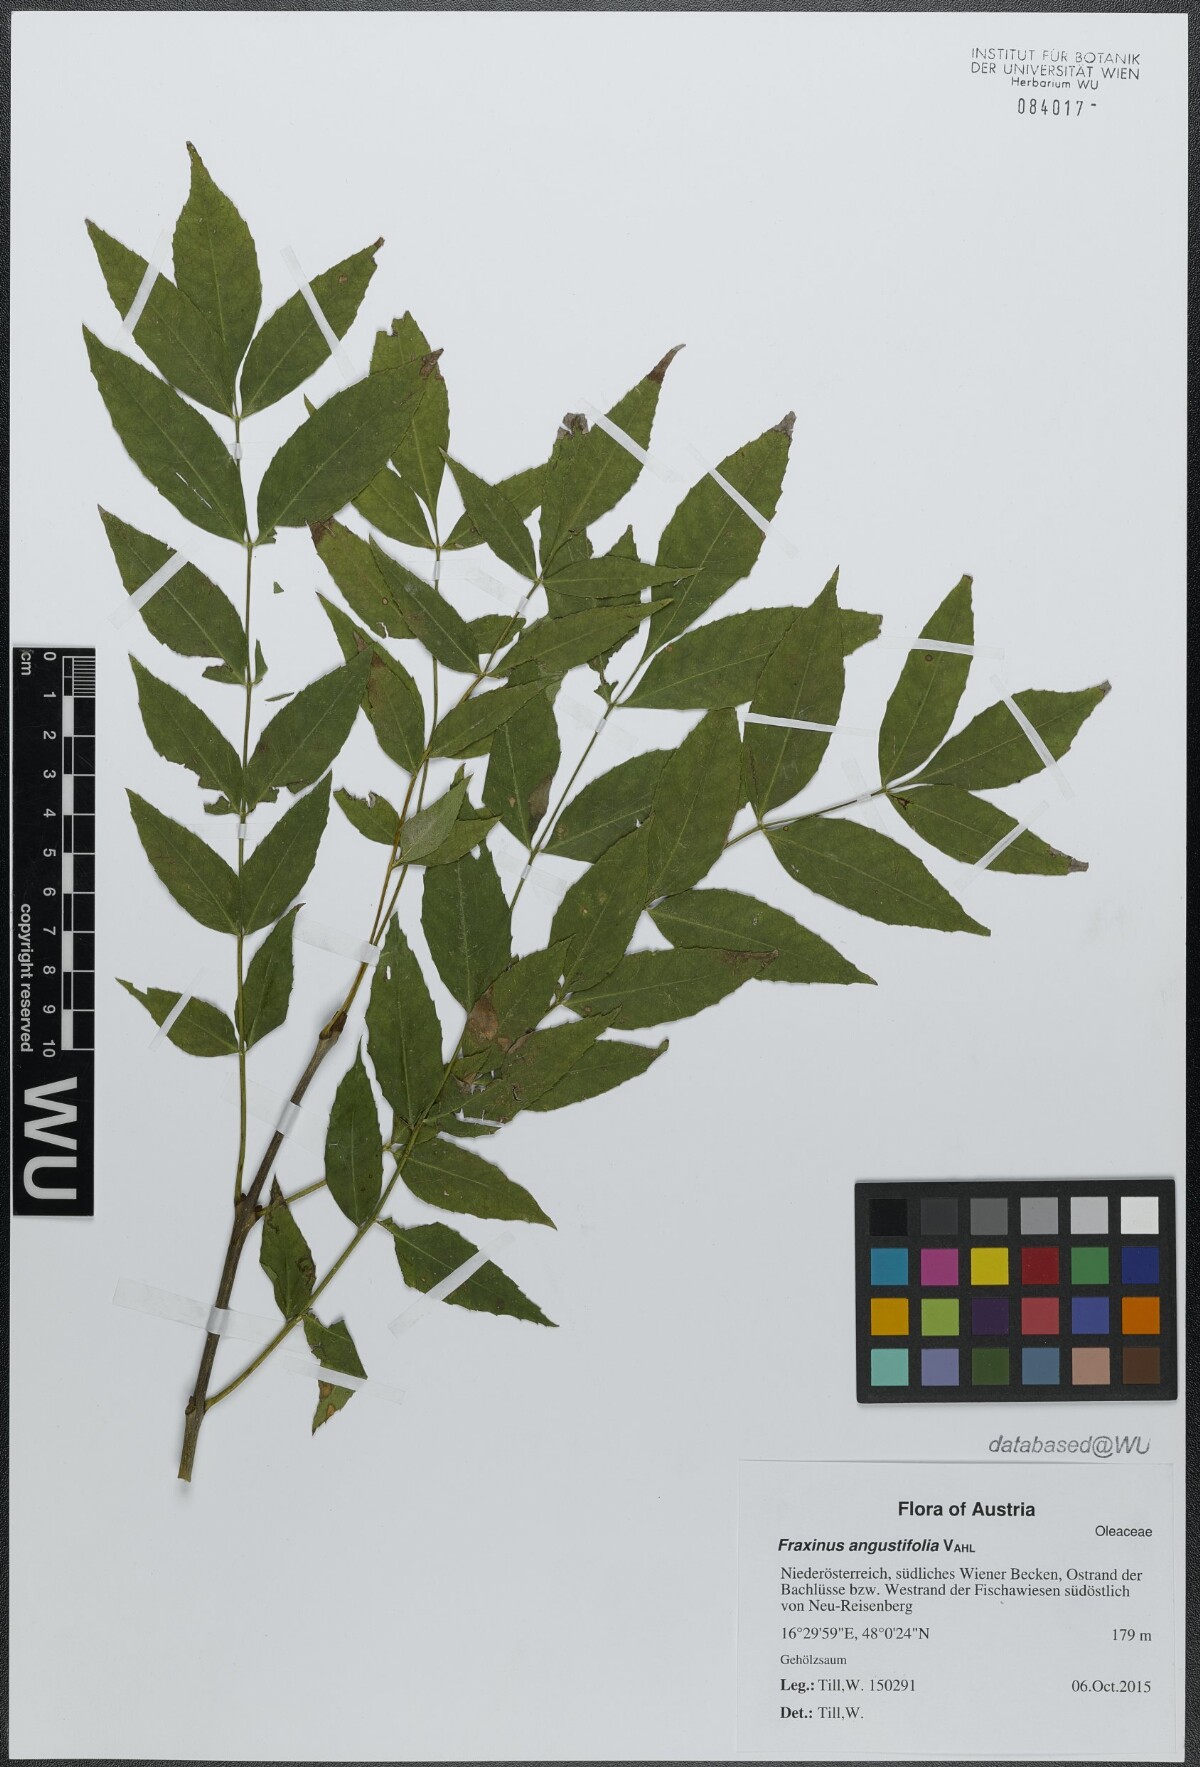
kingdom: Plantae
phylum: Tracheophyta
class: Magnoliopsida
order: Lamiales
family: Oleaceae
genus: Fraxinus
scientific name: Fraxinus angustifolia
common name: Narrow-leafed ash
